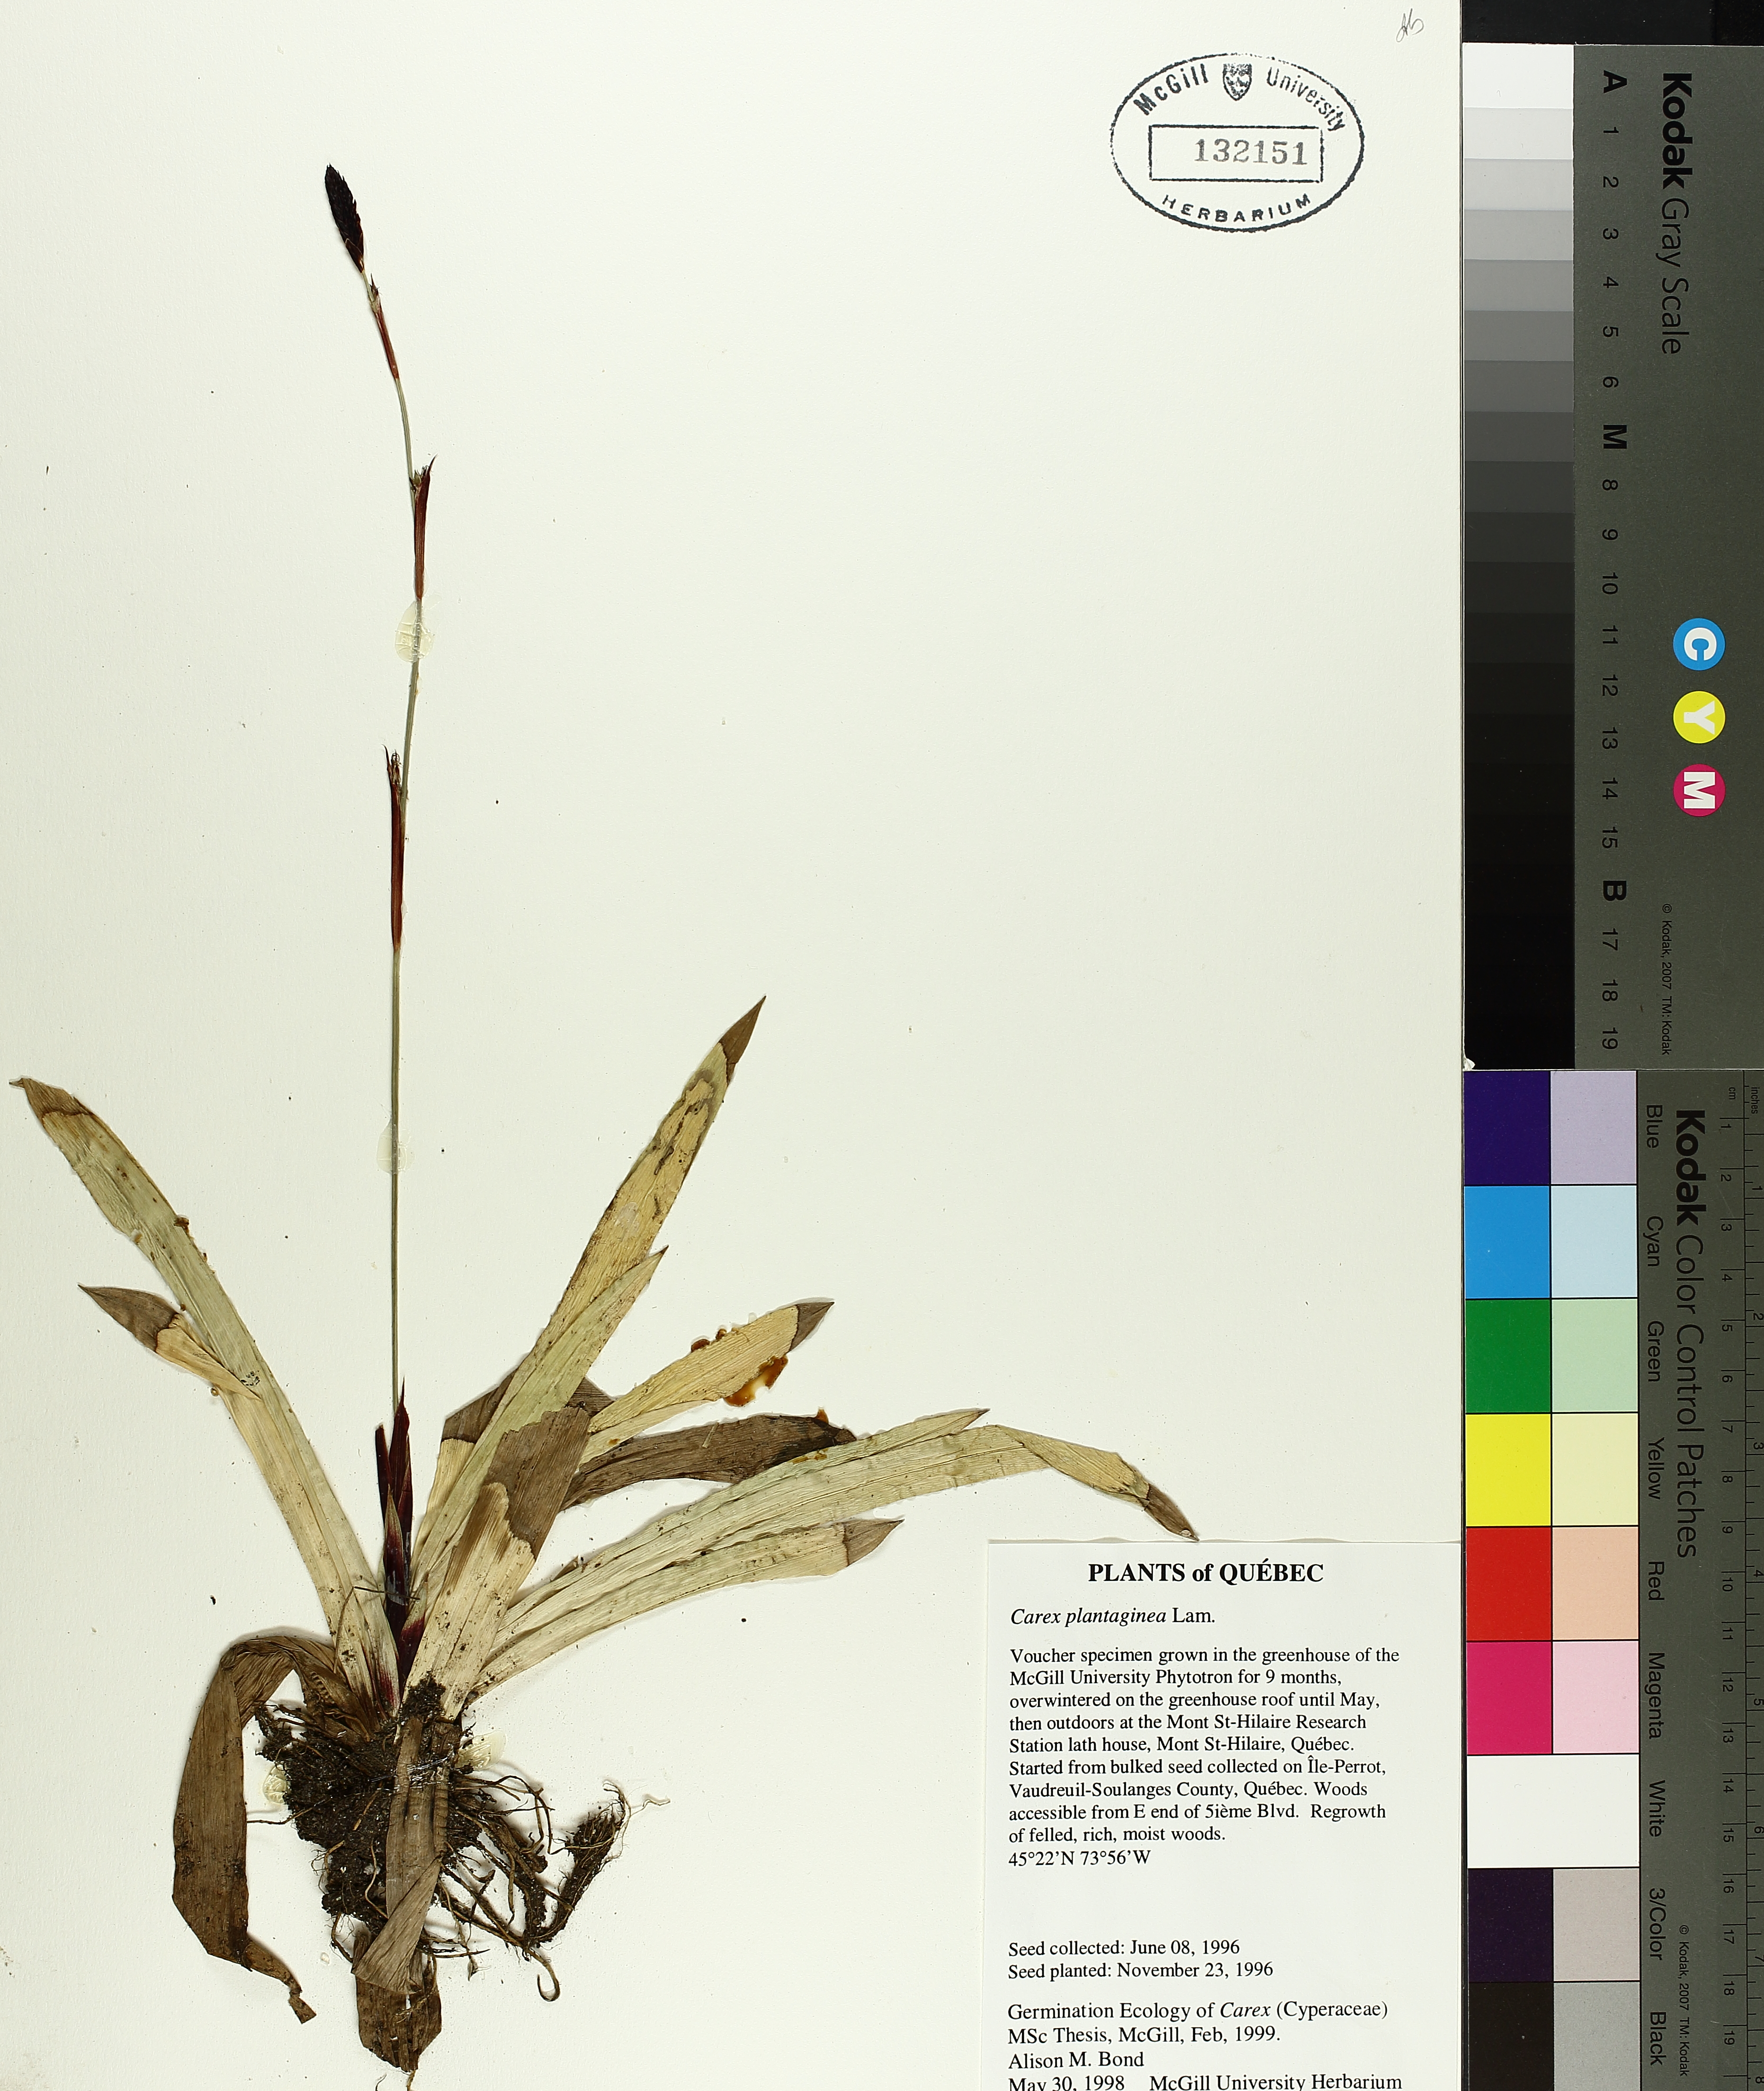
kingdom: Plantae
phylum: Tracheophyta
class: Liliopsida
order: Poales
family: Cyperaceae
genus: Carex
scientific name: Carex plantaginea
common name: Plantain-leaved sedge
